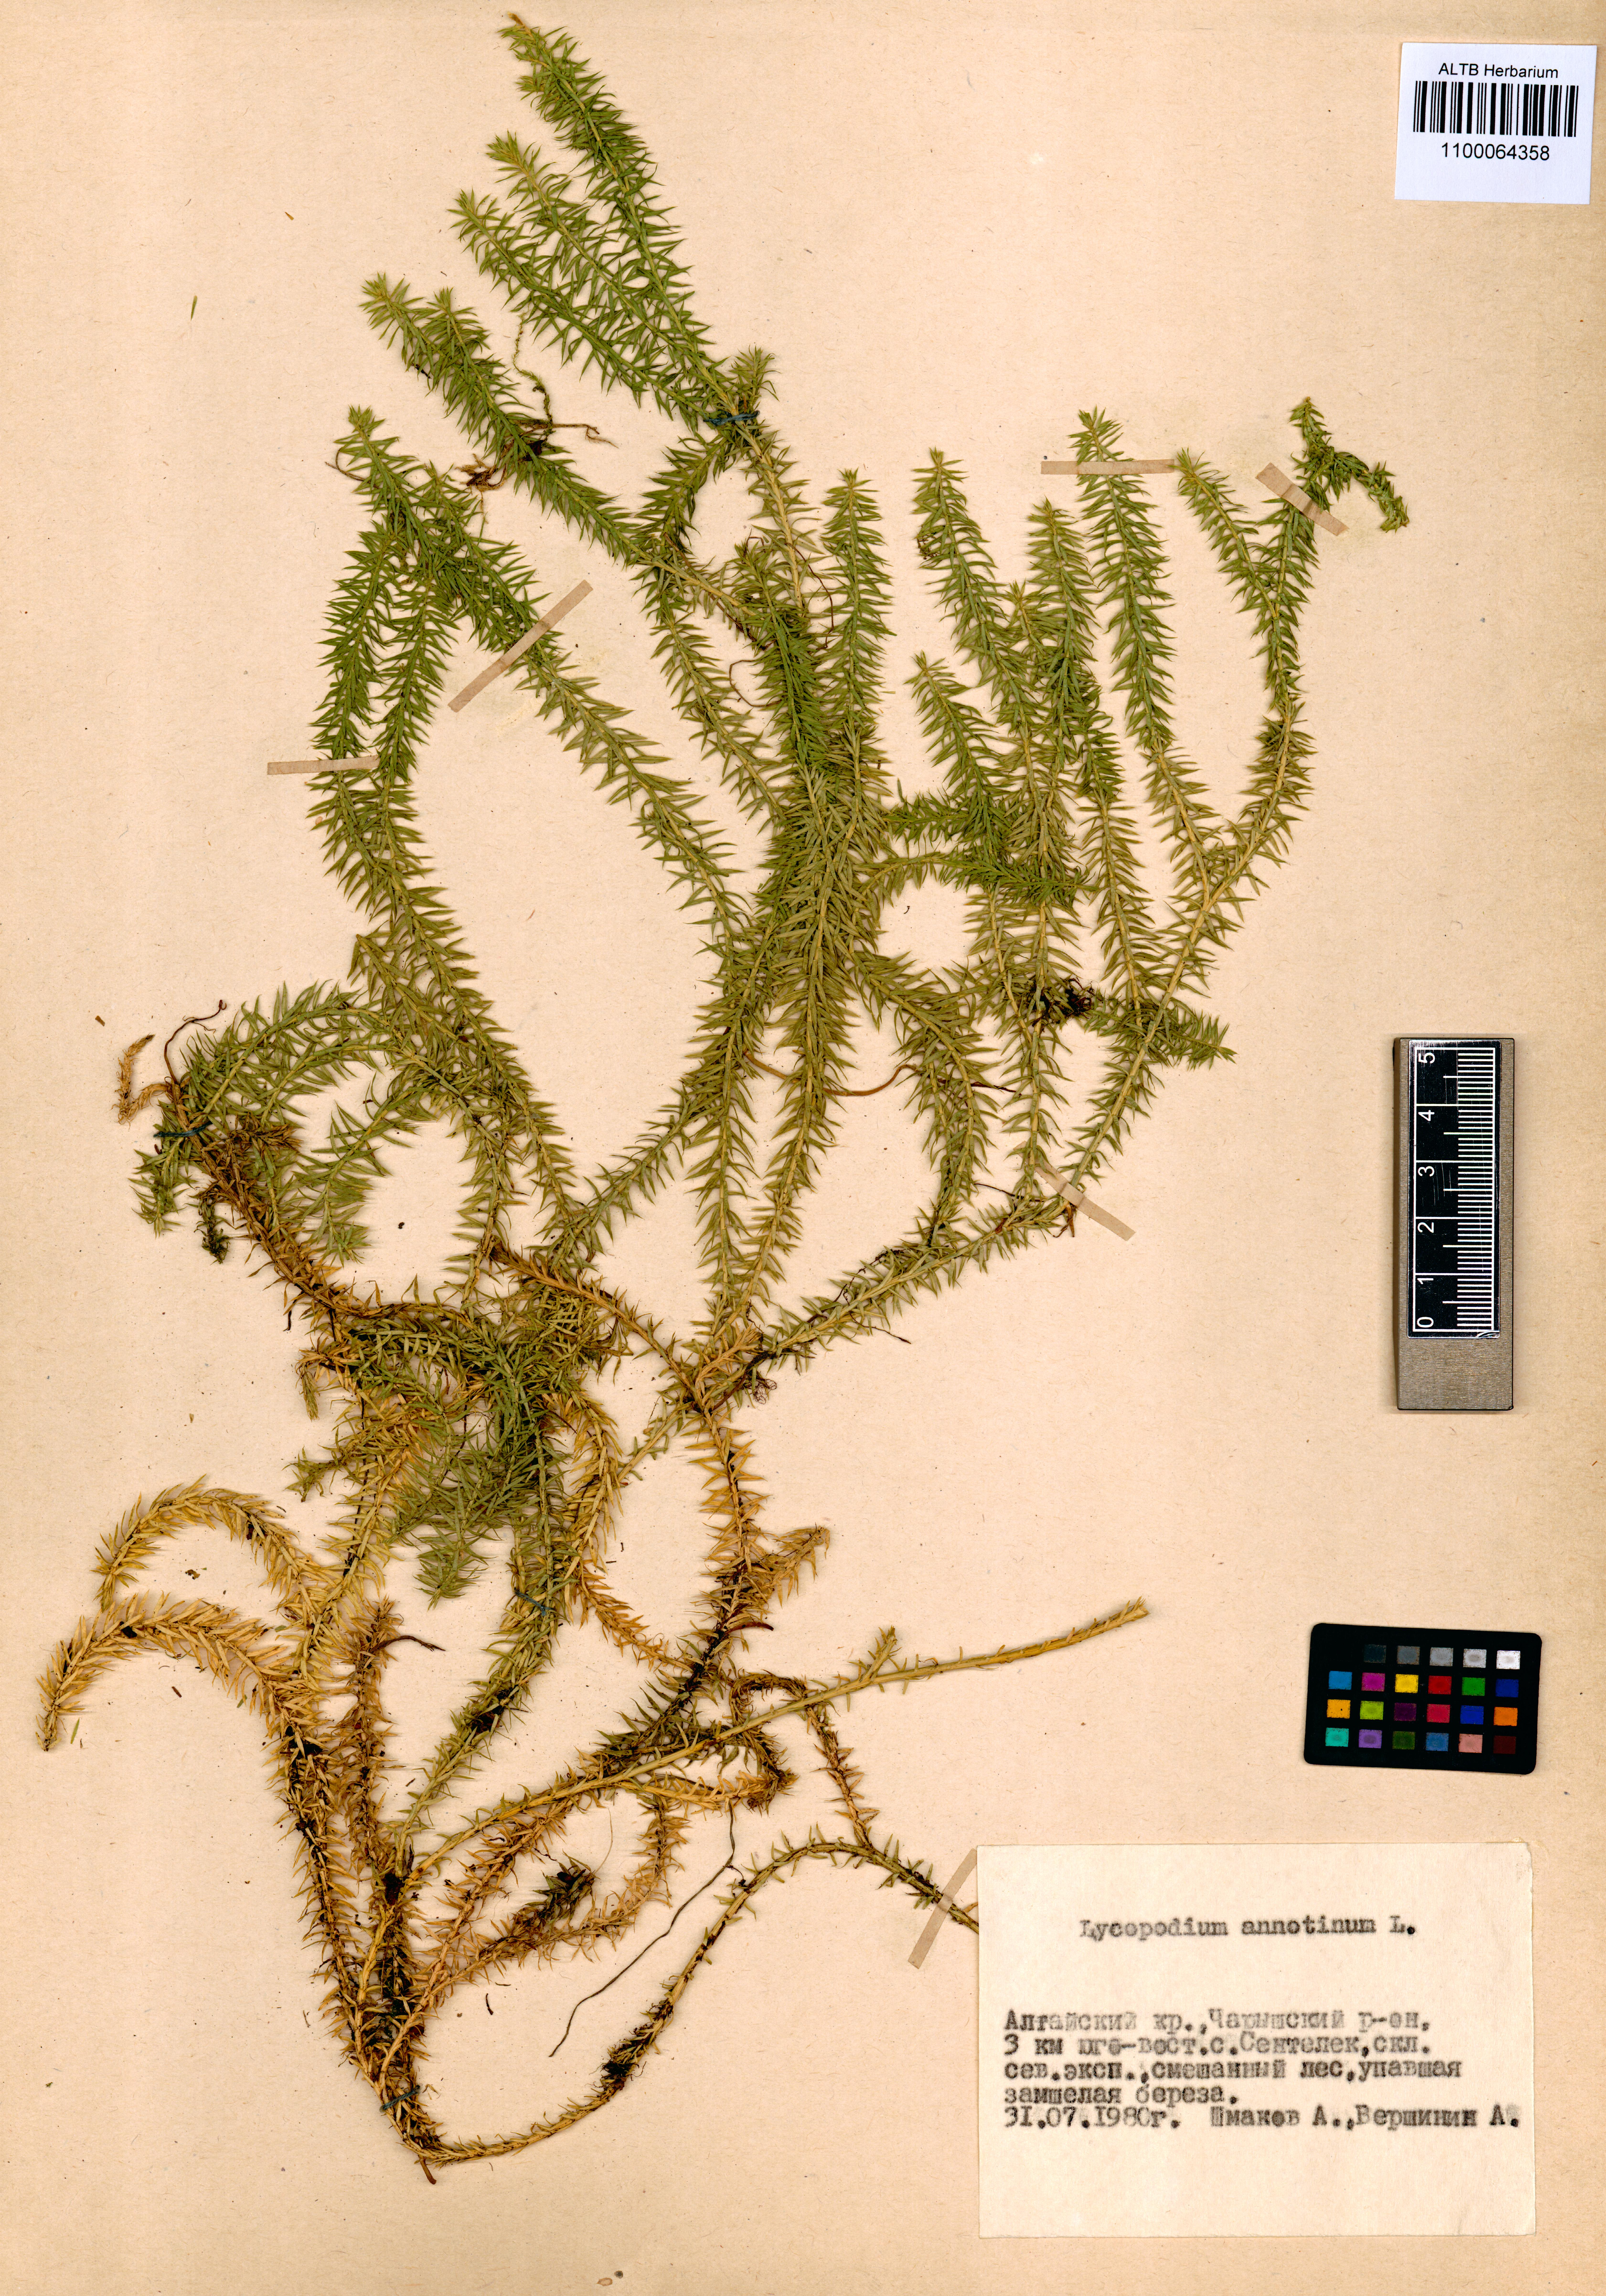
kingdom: Plantae
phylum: Tracheophyta
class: Lycopodiopsida
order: Lycopodiales
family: Lycopodiaceae
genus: Spinulum
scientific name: Spinulum annotinum
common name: Interrupted club-moss
